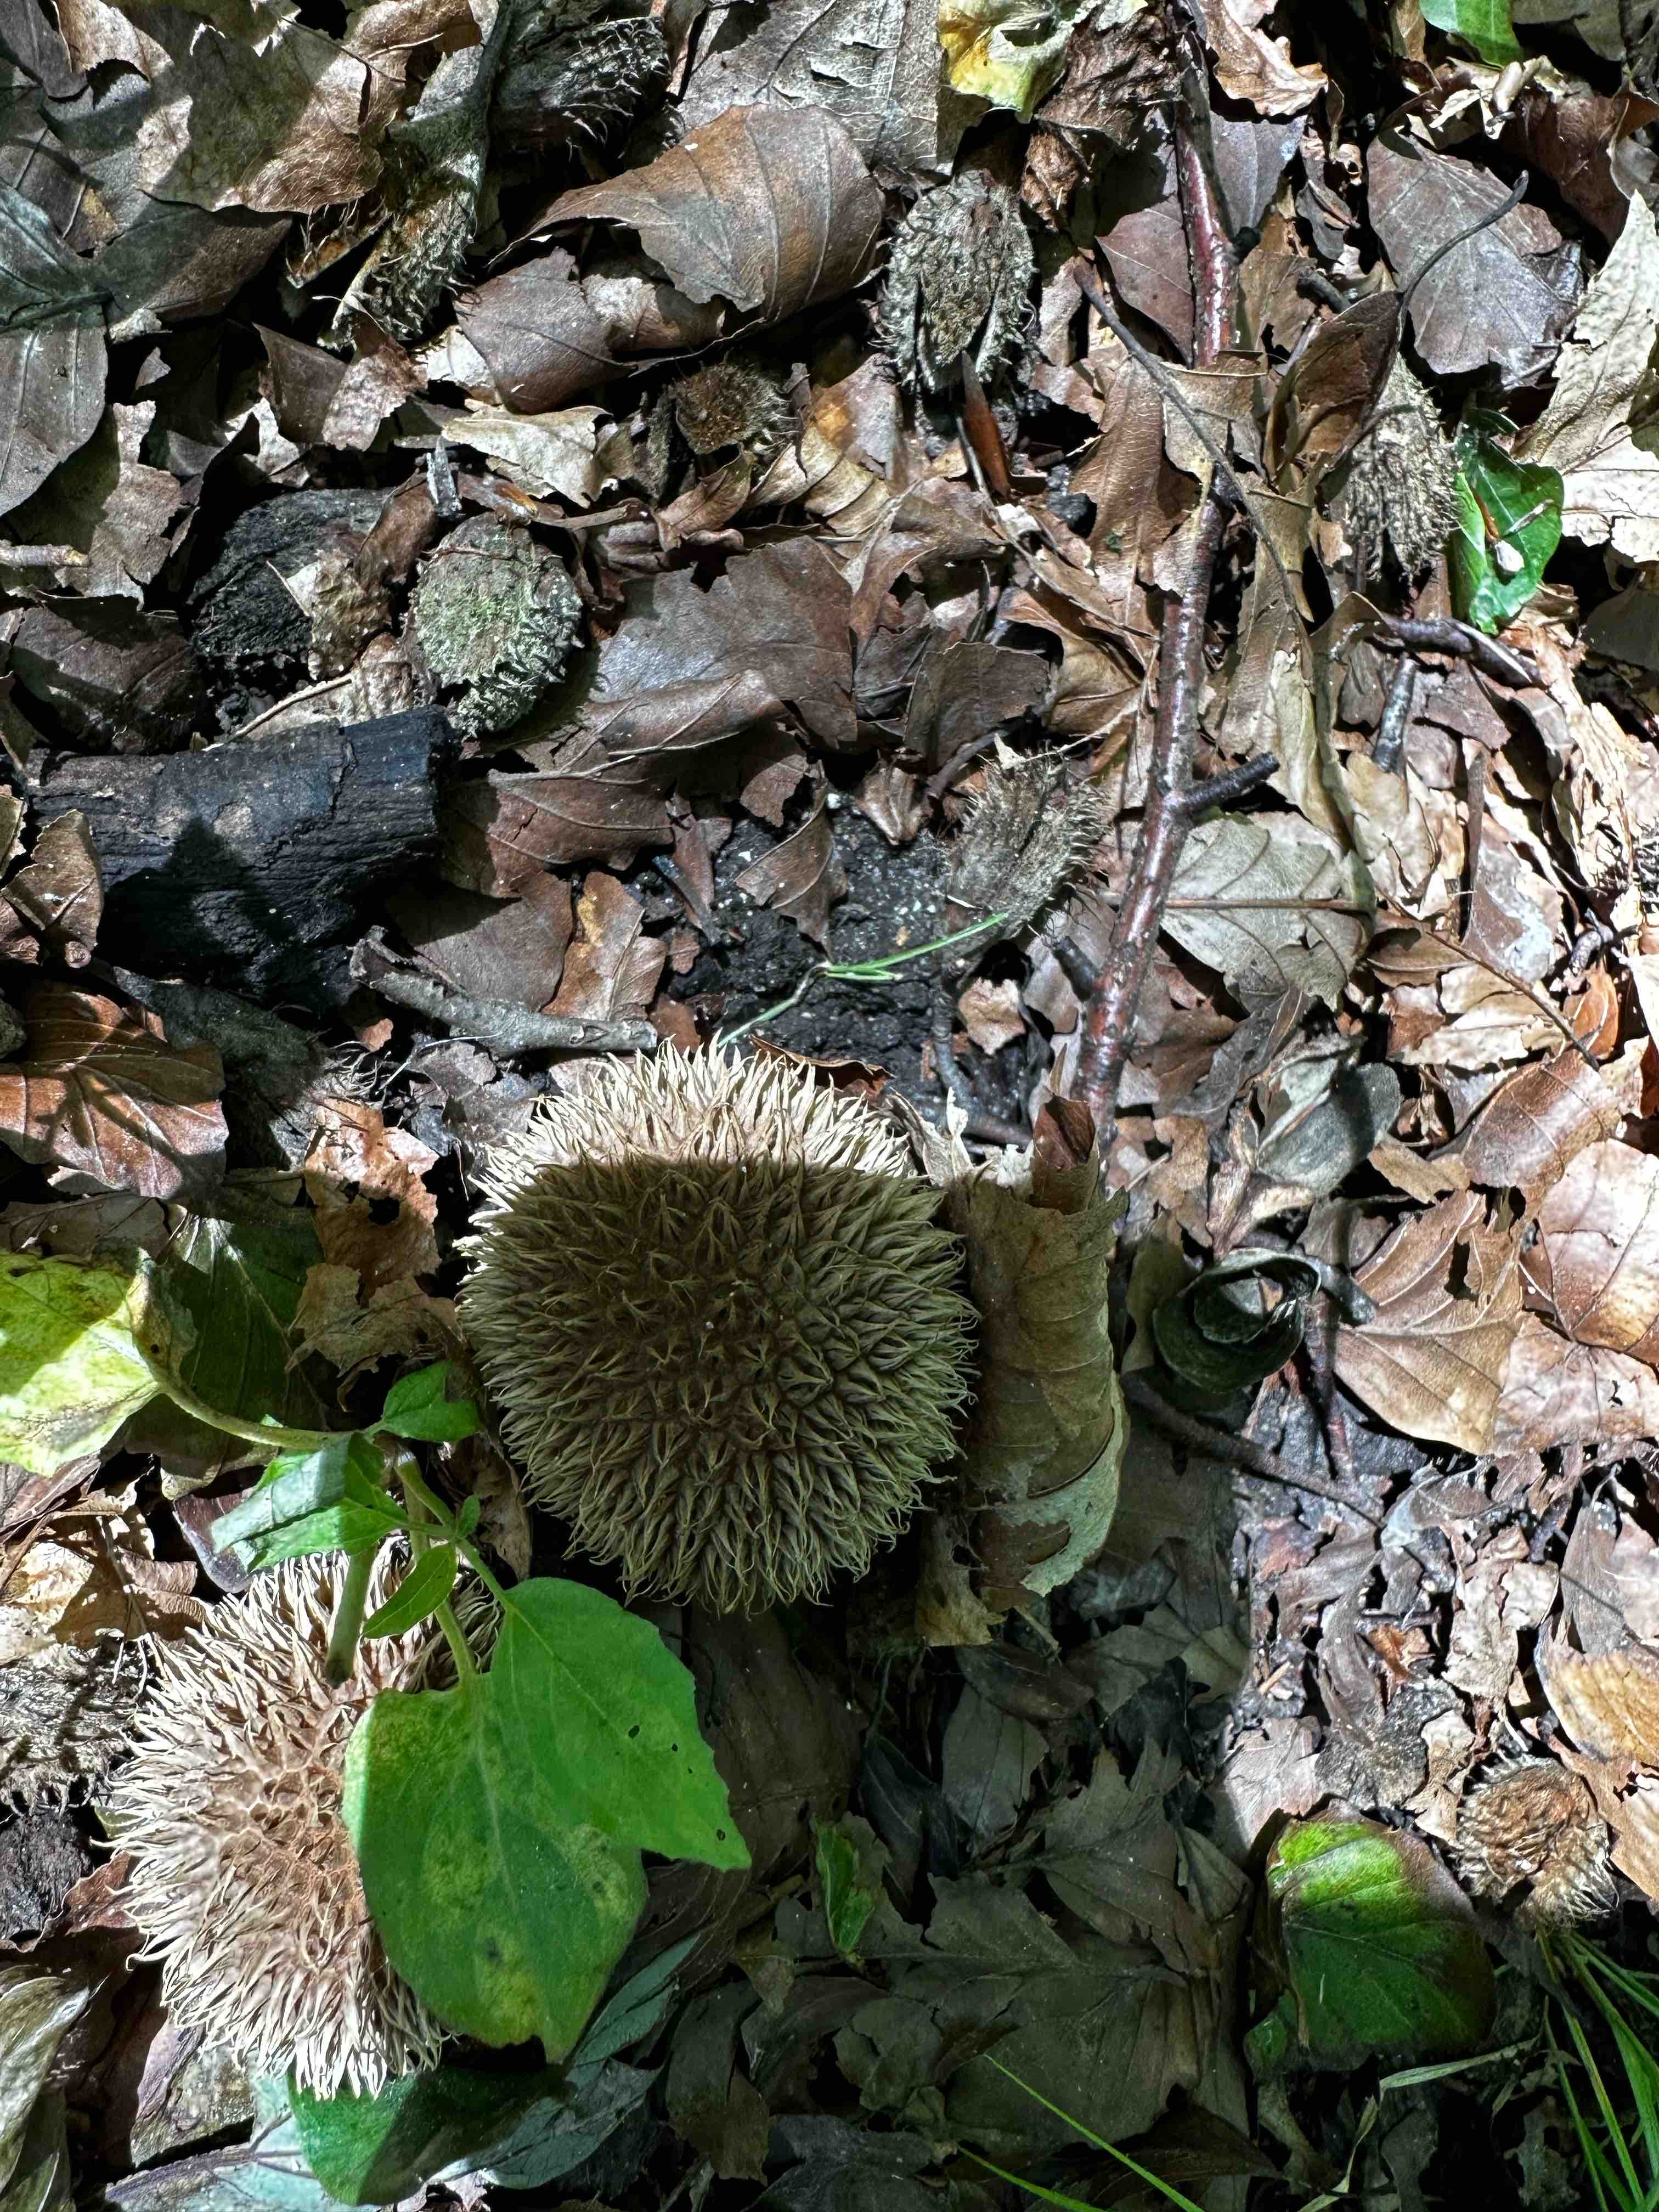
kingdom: Fungi
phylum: Basidiomycota
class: Agaricomycetes
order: Agaricales
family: Lycoperdaceae
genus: Lycoperdon
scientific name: Lycoperdon echinatum
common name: pindsvine-støvbold
